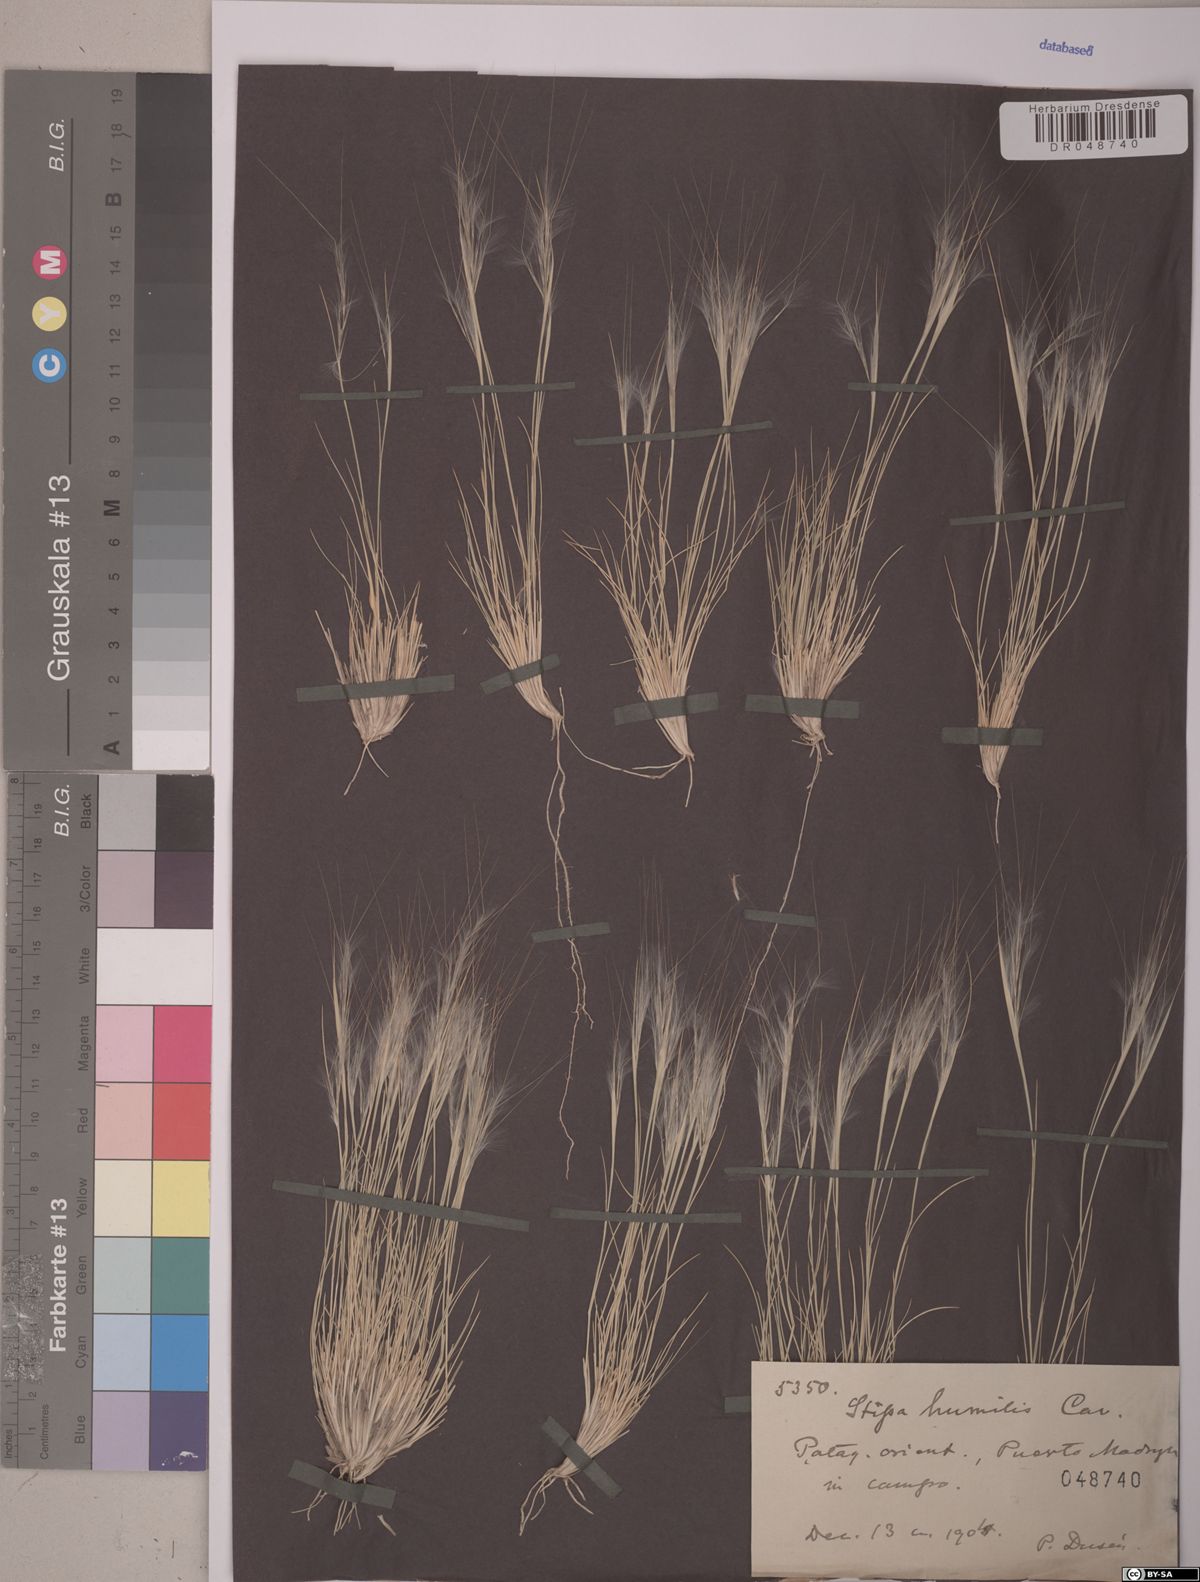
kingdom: Plantae
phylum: Tracheophyta
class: Liliopsida
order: Poales
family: Poaceae
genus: Pappostipa
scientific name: Pappostipa humilis
